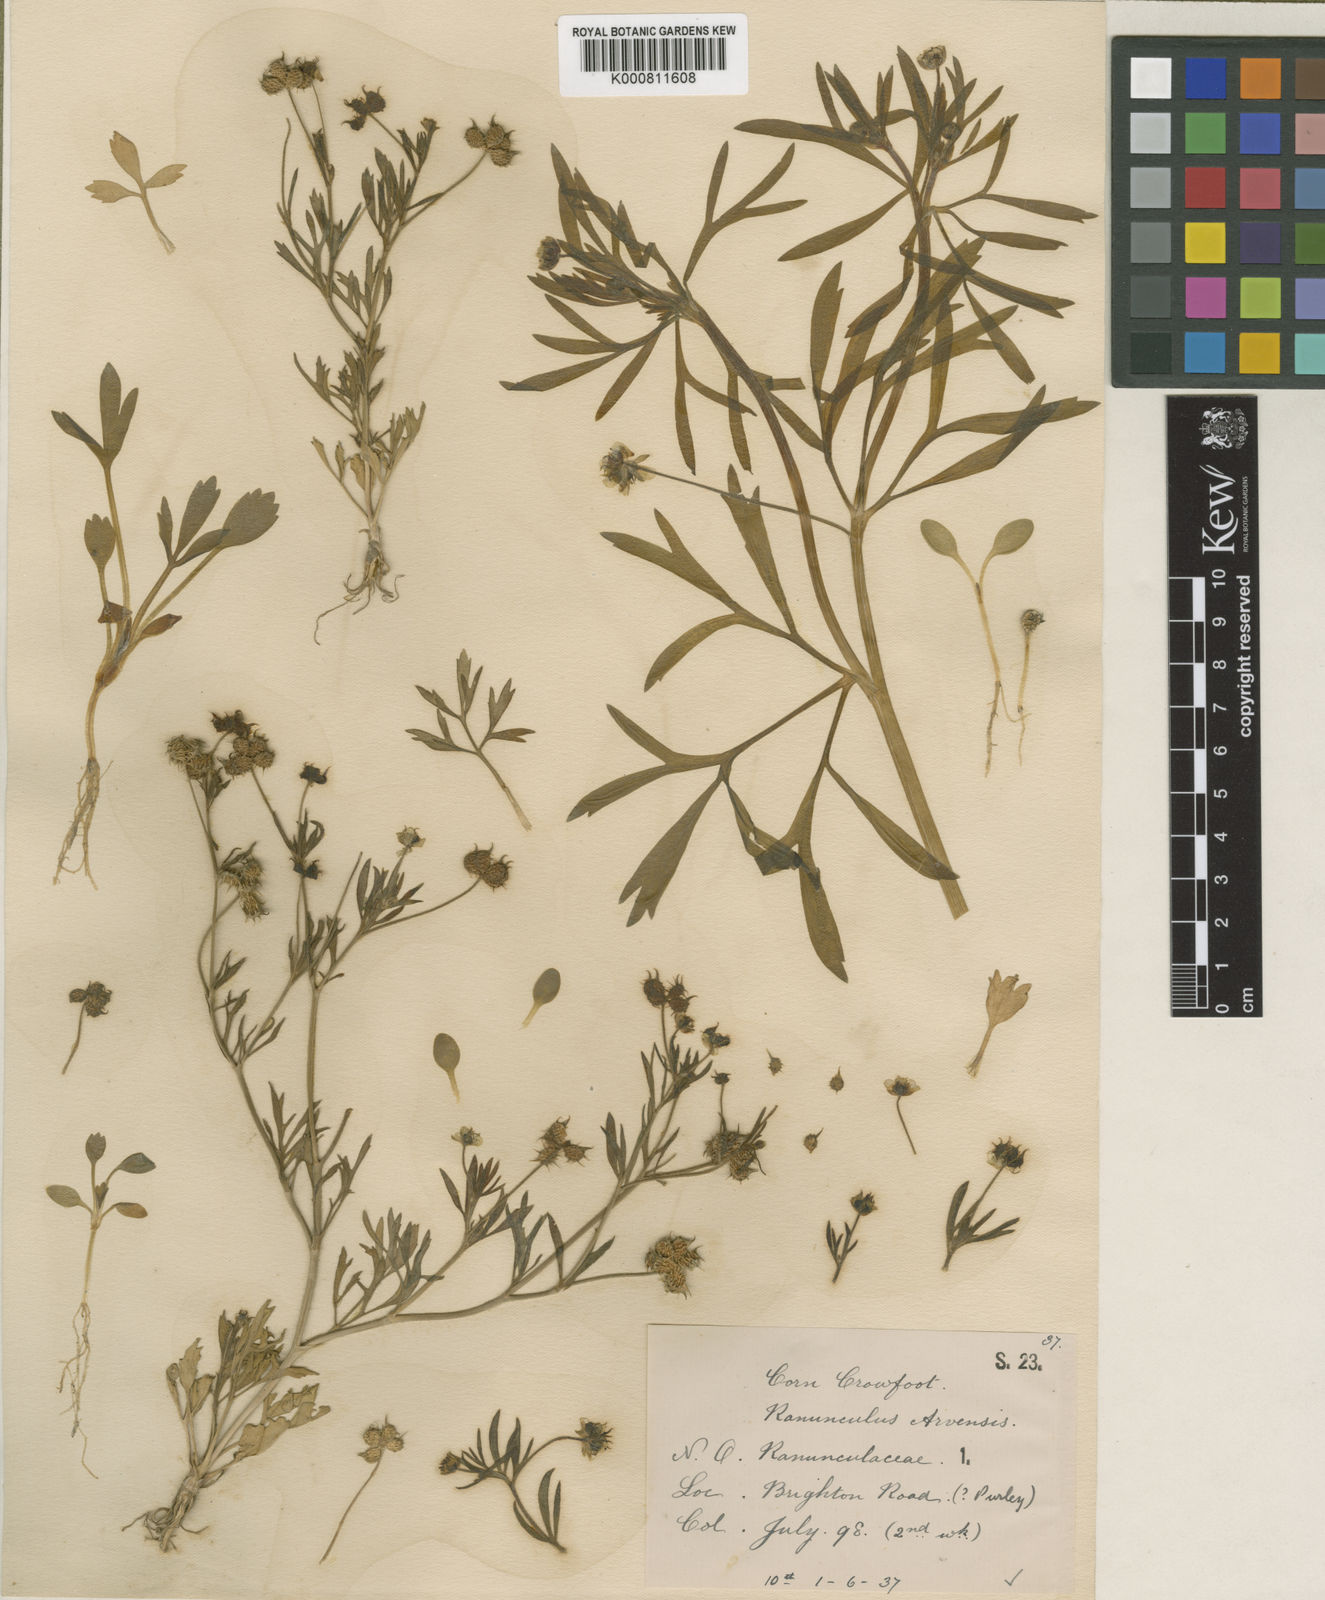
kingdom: Plantae
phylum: Tracheophyta
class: Magnoliopsida
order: Ranunculales
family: Ranunculaceae
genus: Ranunculus
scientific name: Ranunculus arvensis
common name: Corn buttercup
